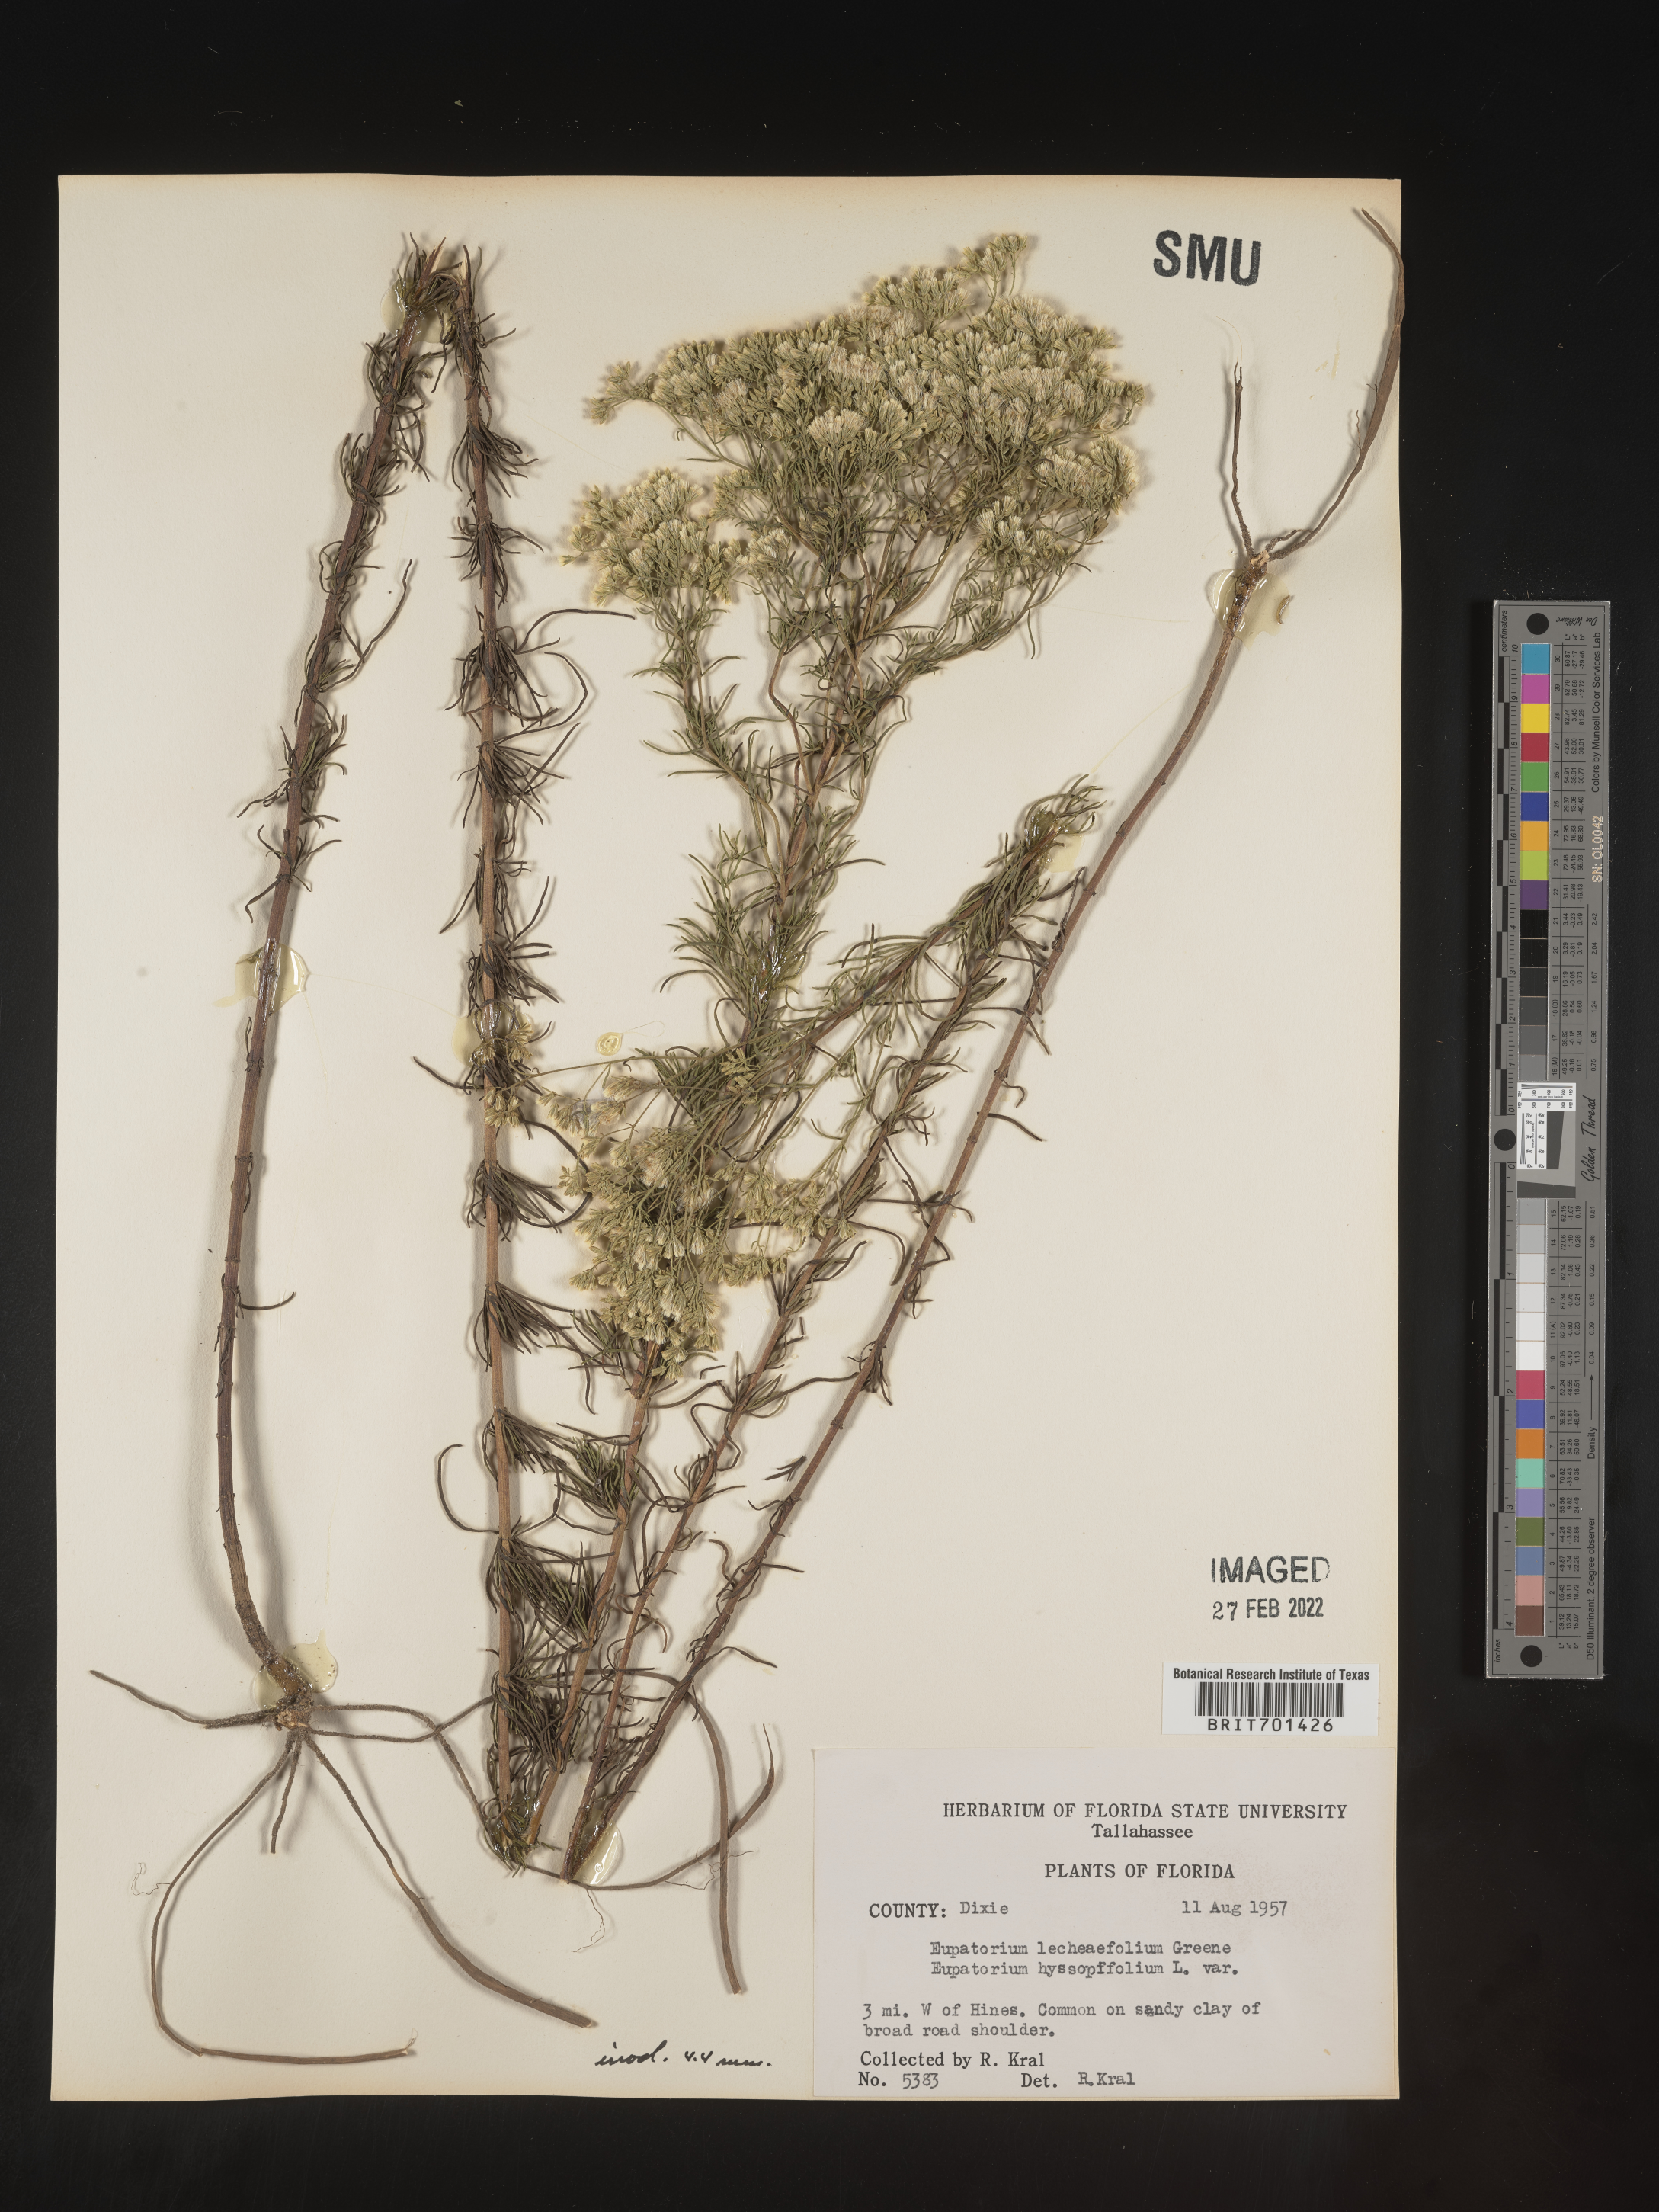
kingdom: Plantae
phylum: Tracheophyta
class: Magnoliopsida
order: Asterales
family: Asteraceae
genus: Eupatorium
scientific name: Eupatorium hyssopifolium
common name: Hyssop-leaf thoroughwort
